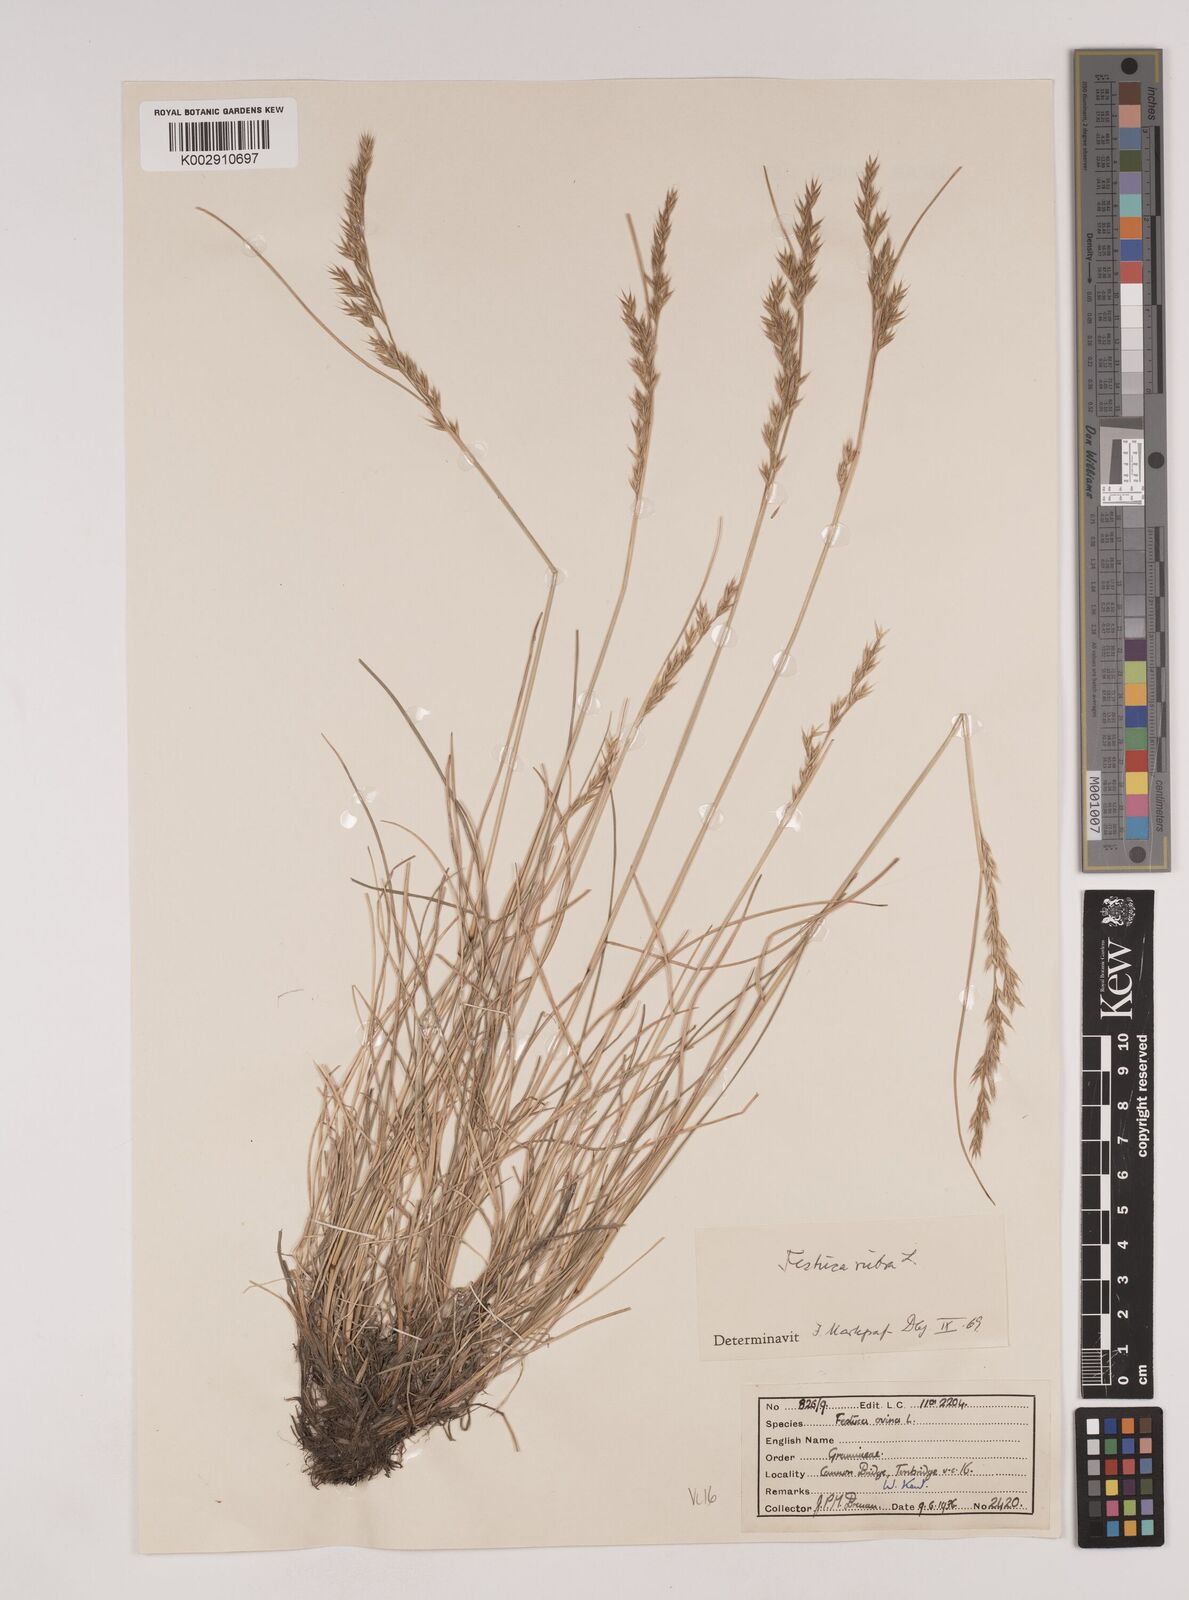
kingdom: Plantae
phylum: Tracheophyta
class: Liliopsida
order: Poales
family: Poaceae
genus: Festuca
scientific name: Festuca rubra
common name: Red fescue
